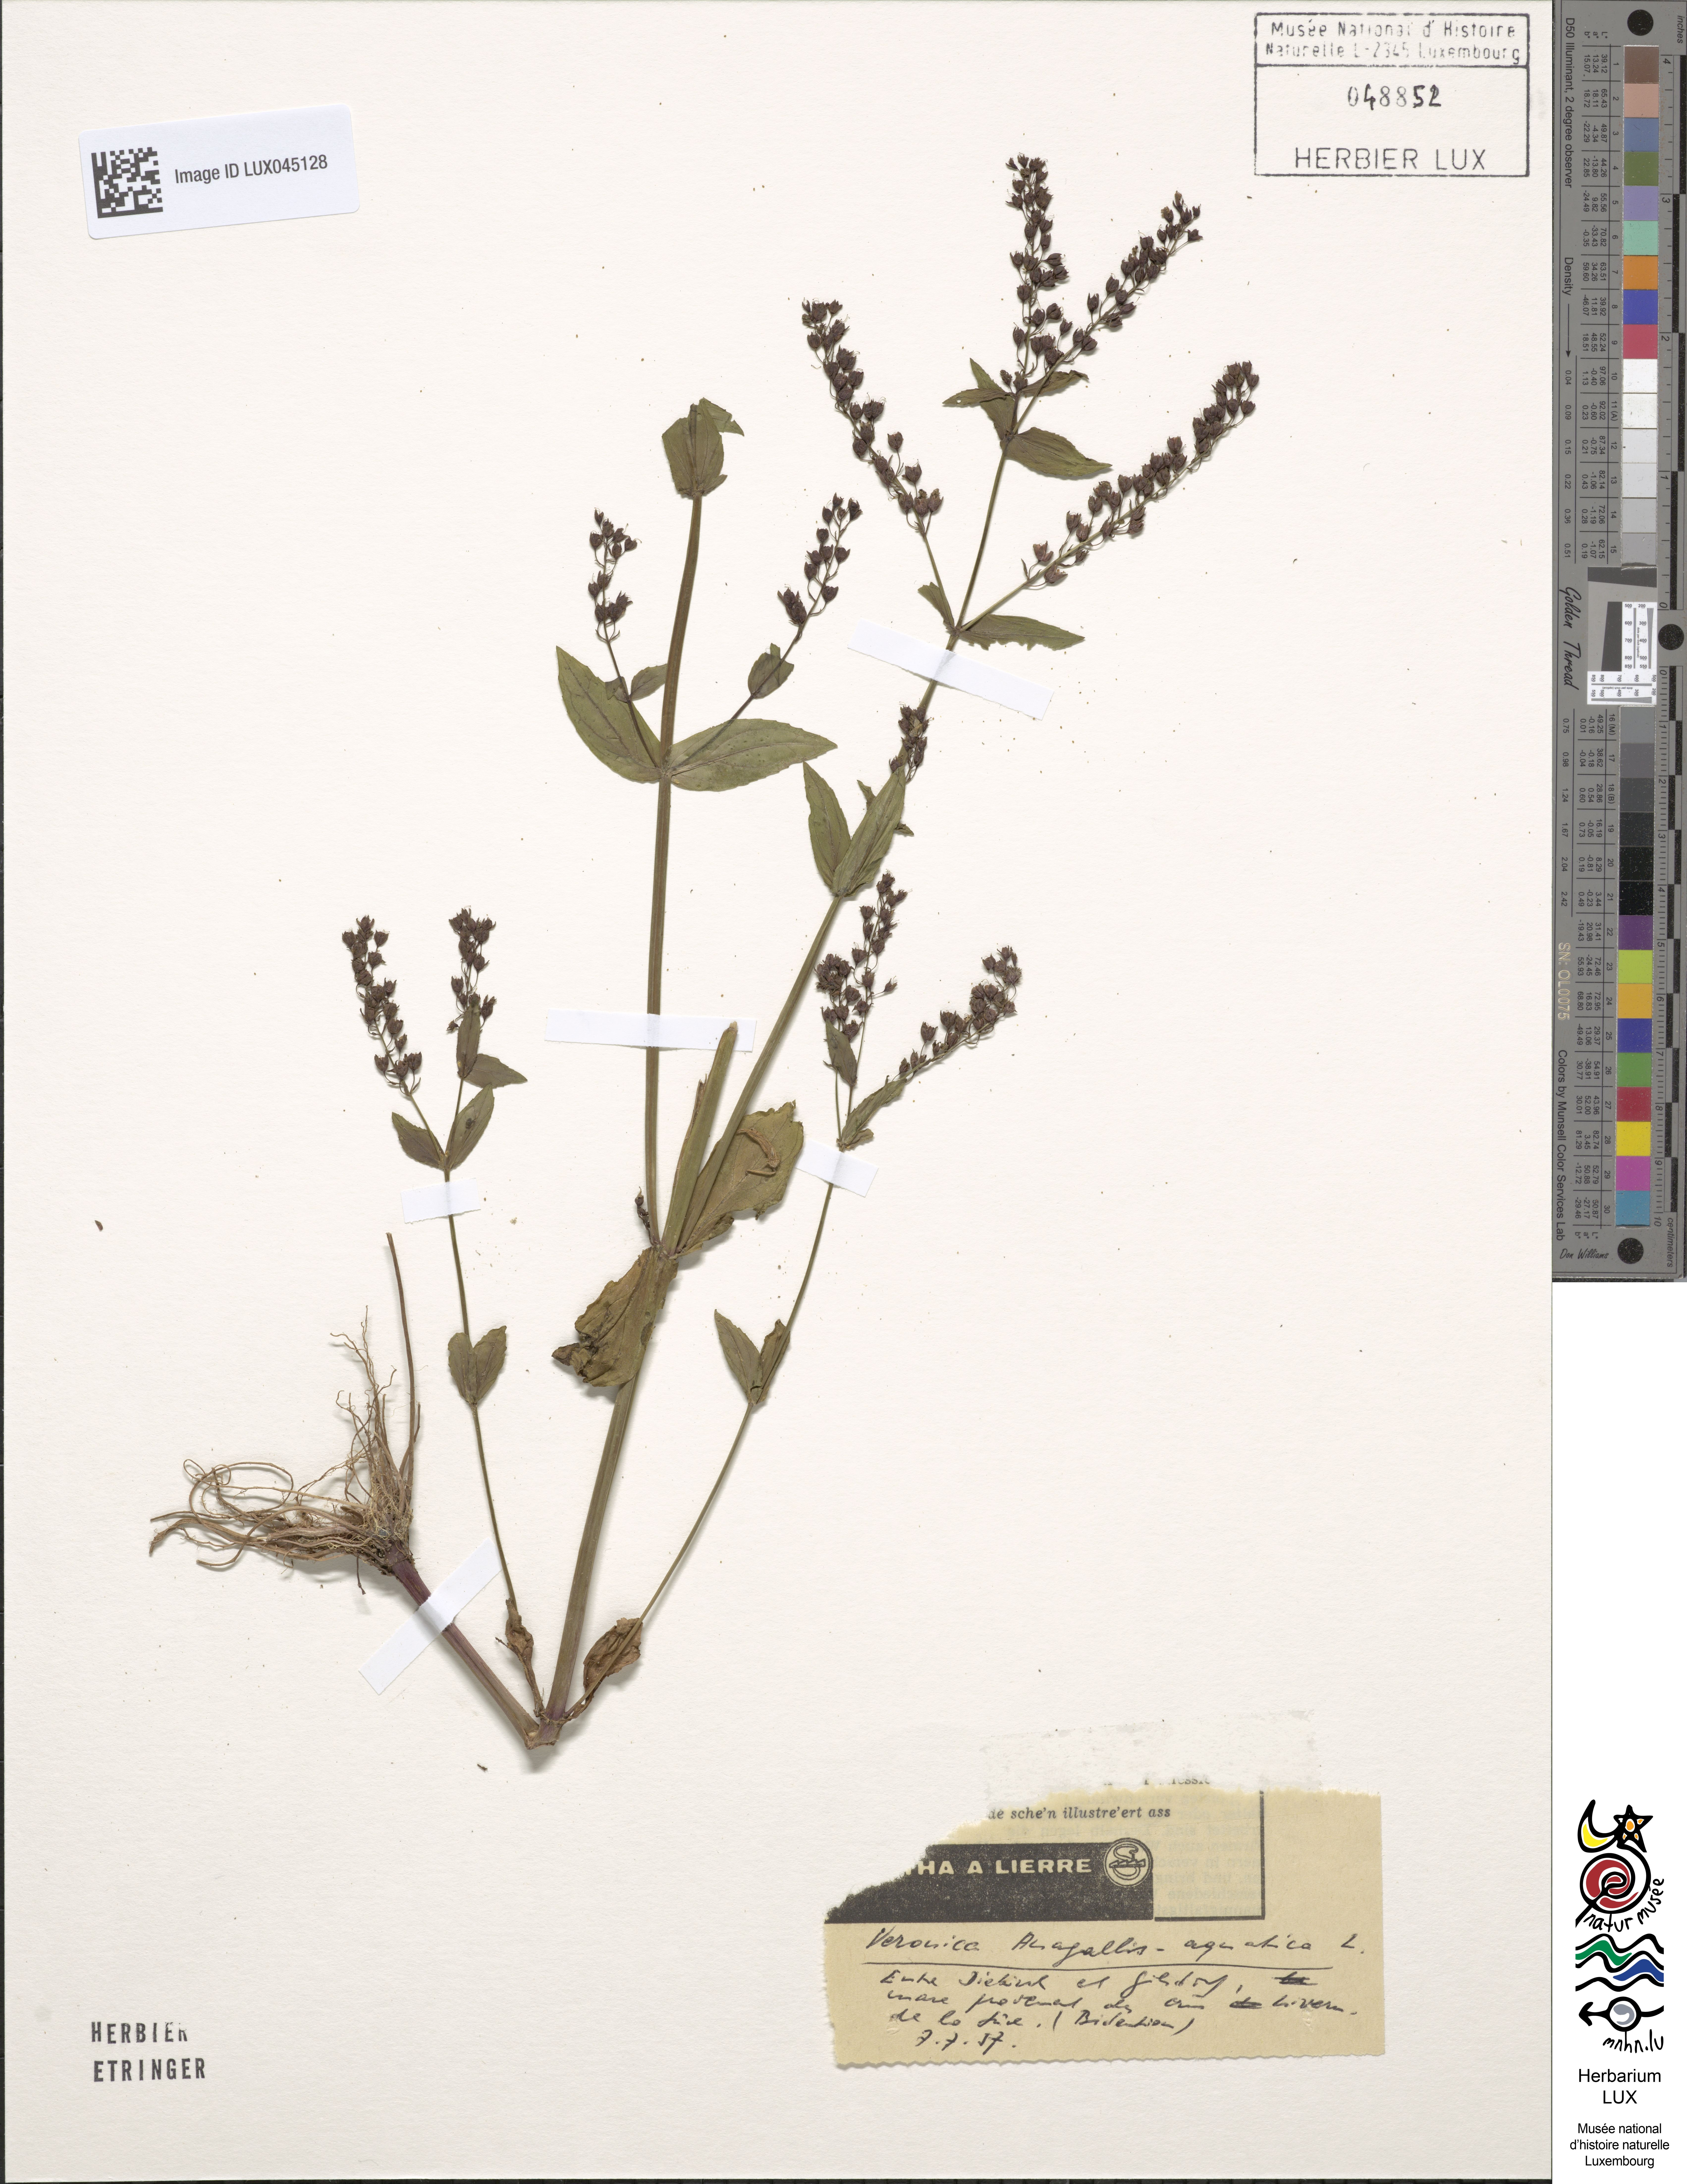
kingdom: Plantae
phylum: Tracheophyta
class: Magnoliopsida
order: Lamiales
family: Plantaginaceae
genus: Veronica
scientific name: Veronica anagallis-aquatica
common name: Water speedwell
